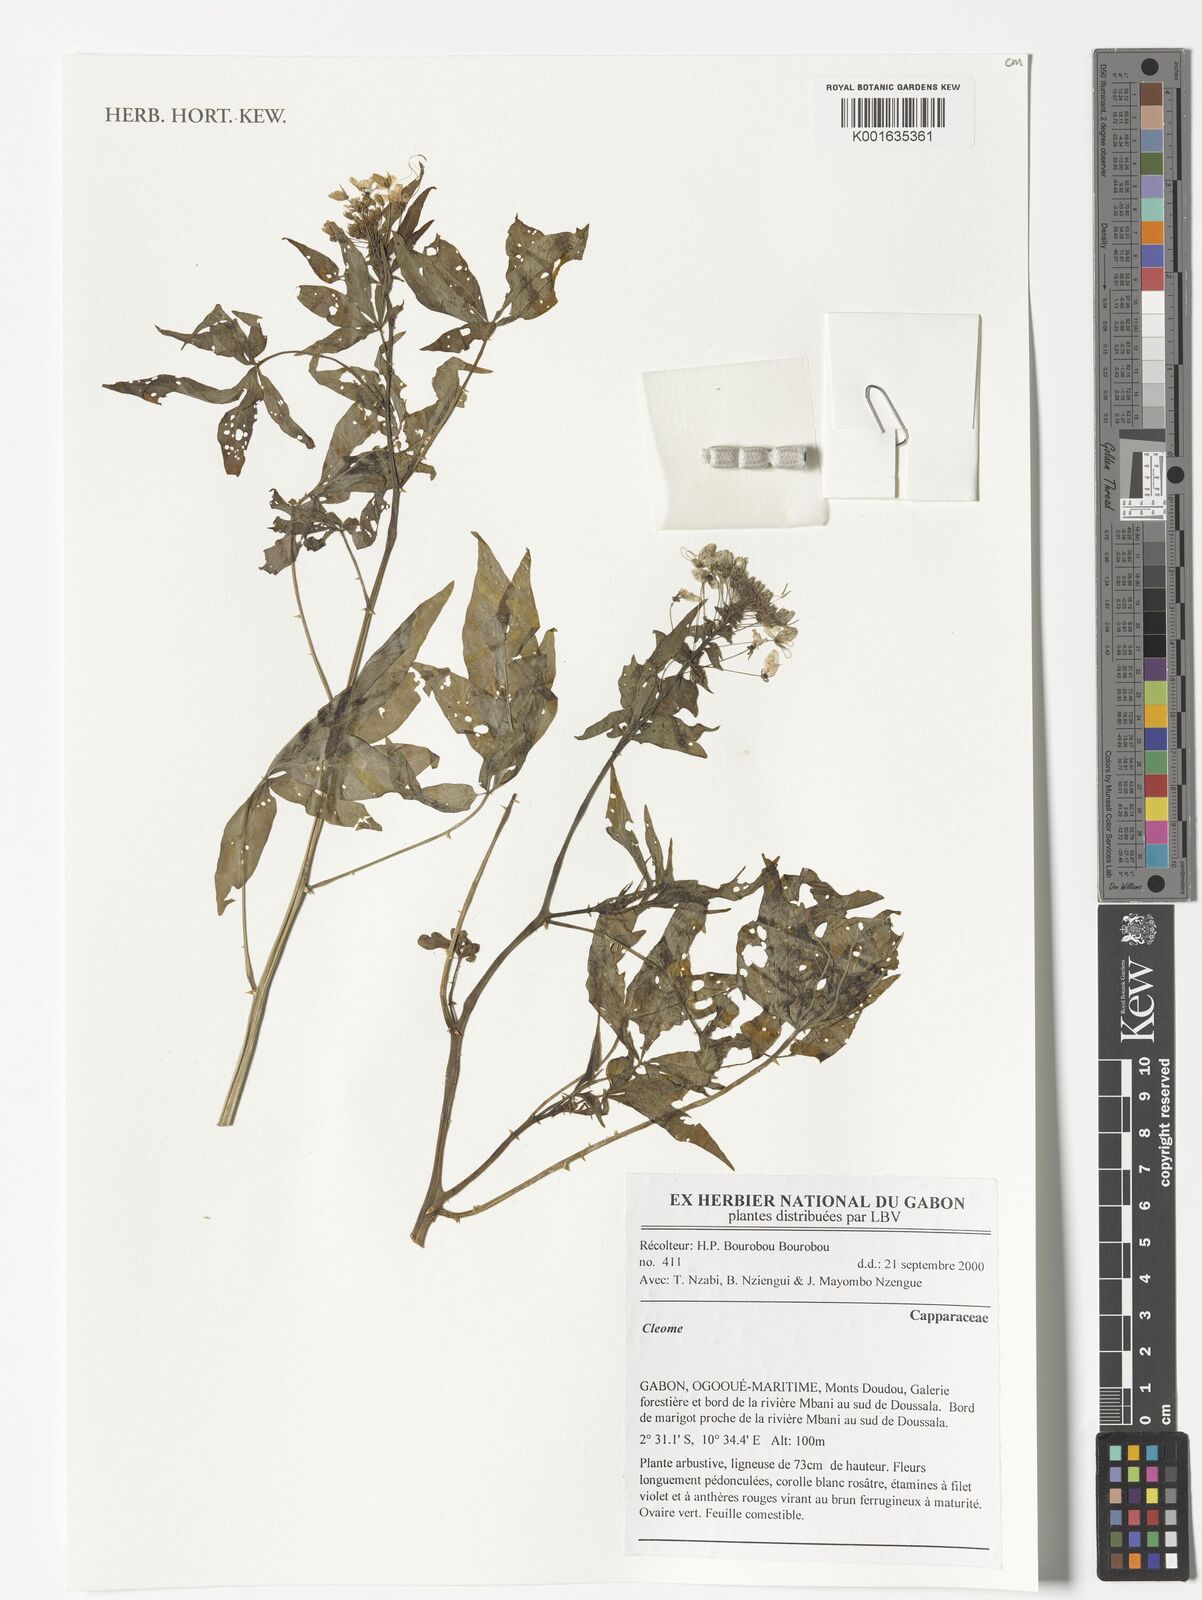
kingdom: Plantae
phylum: Tracheophyta
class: Magnoliopsida
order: Brassicales
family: Capparaceae
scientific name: Capparaceae
